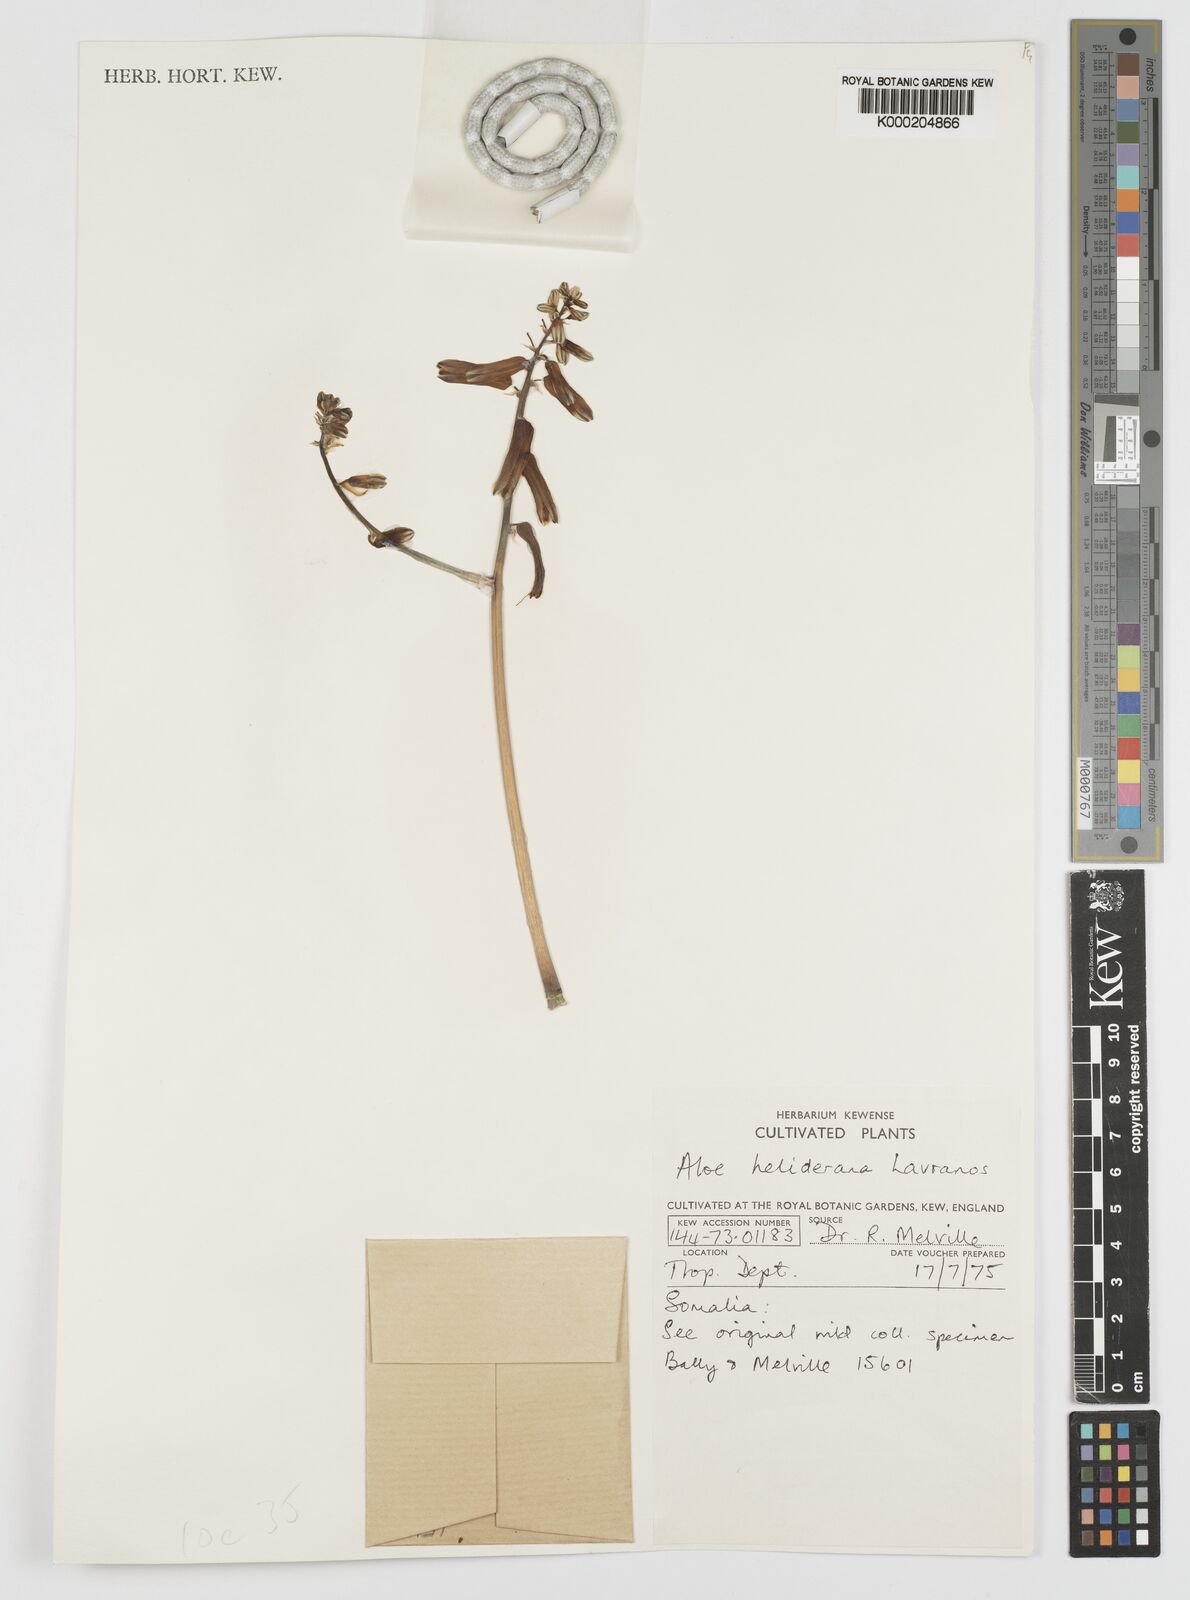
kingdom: Plantae
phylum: Tracheophyta
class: Liliopsida
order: Asparagales
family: Asphodelaceae
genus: Aloe
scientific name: Aloe heliderana
